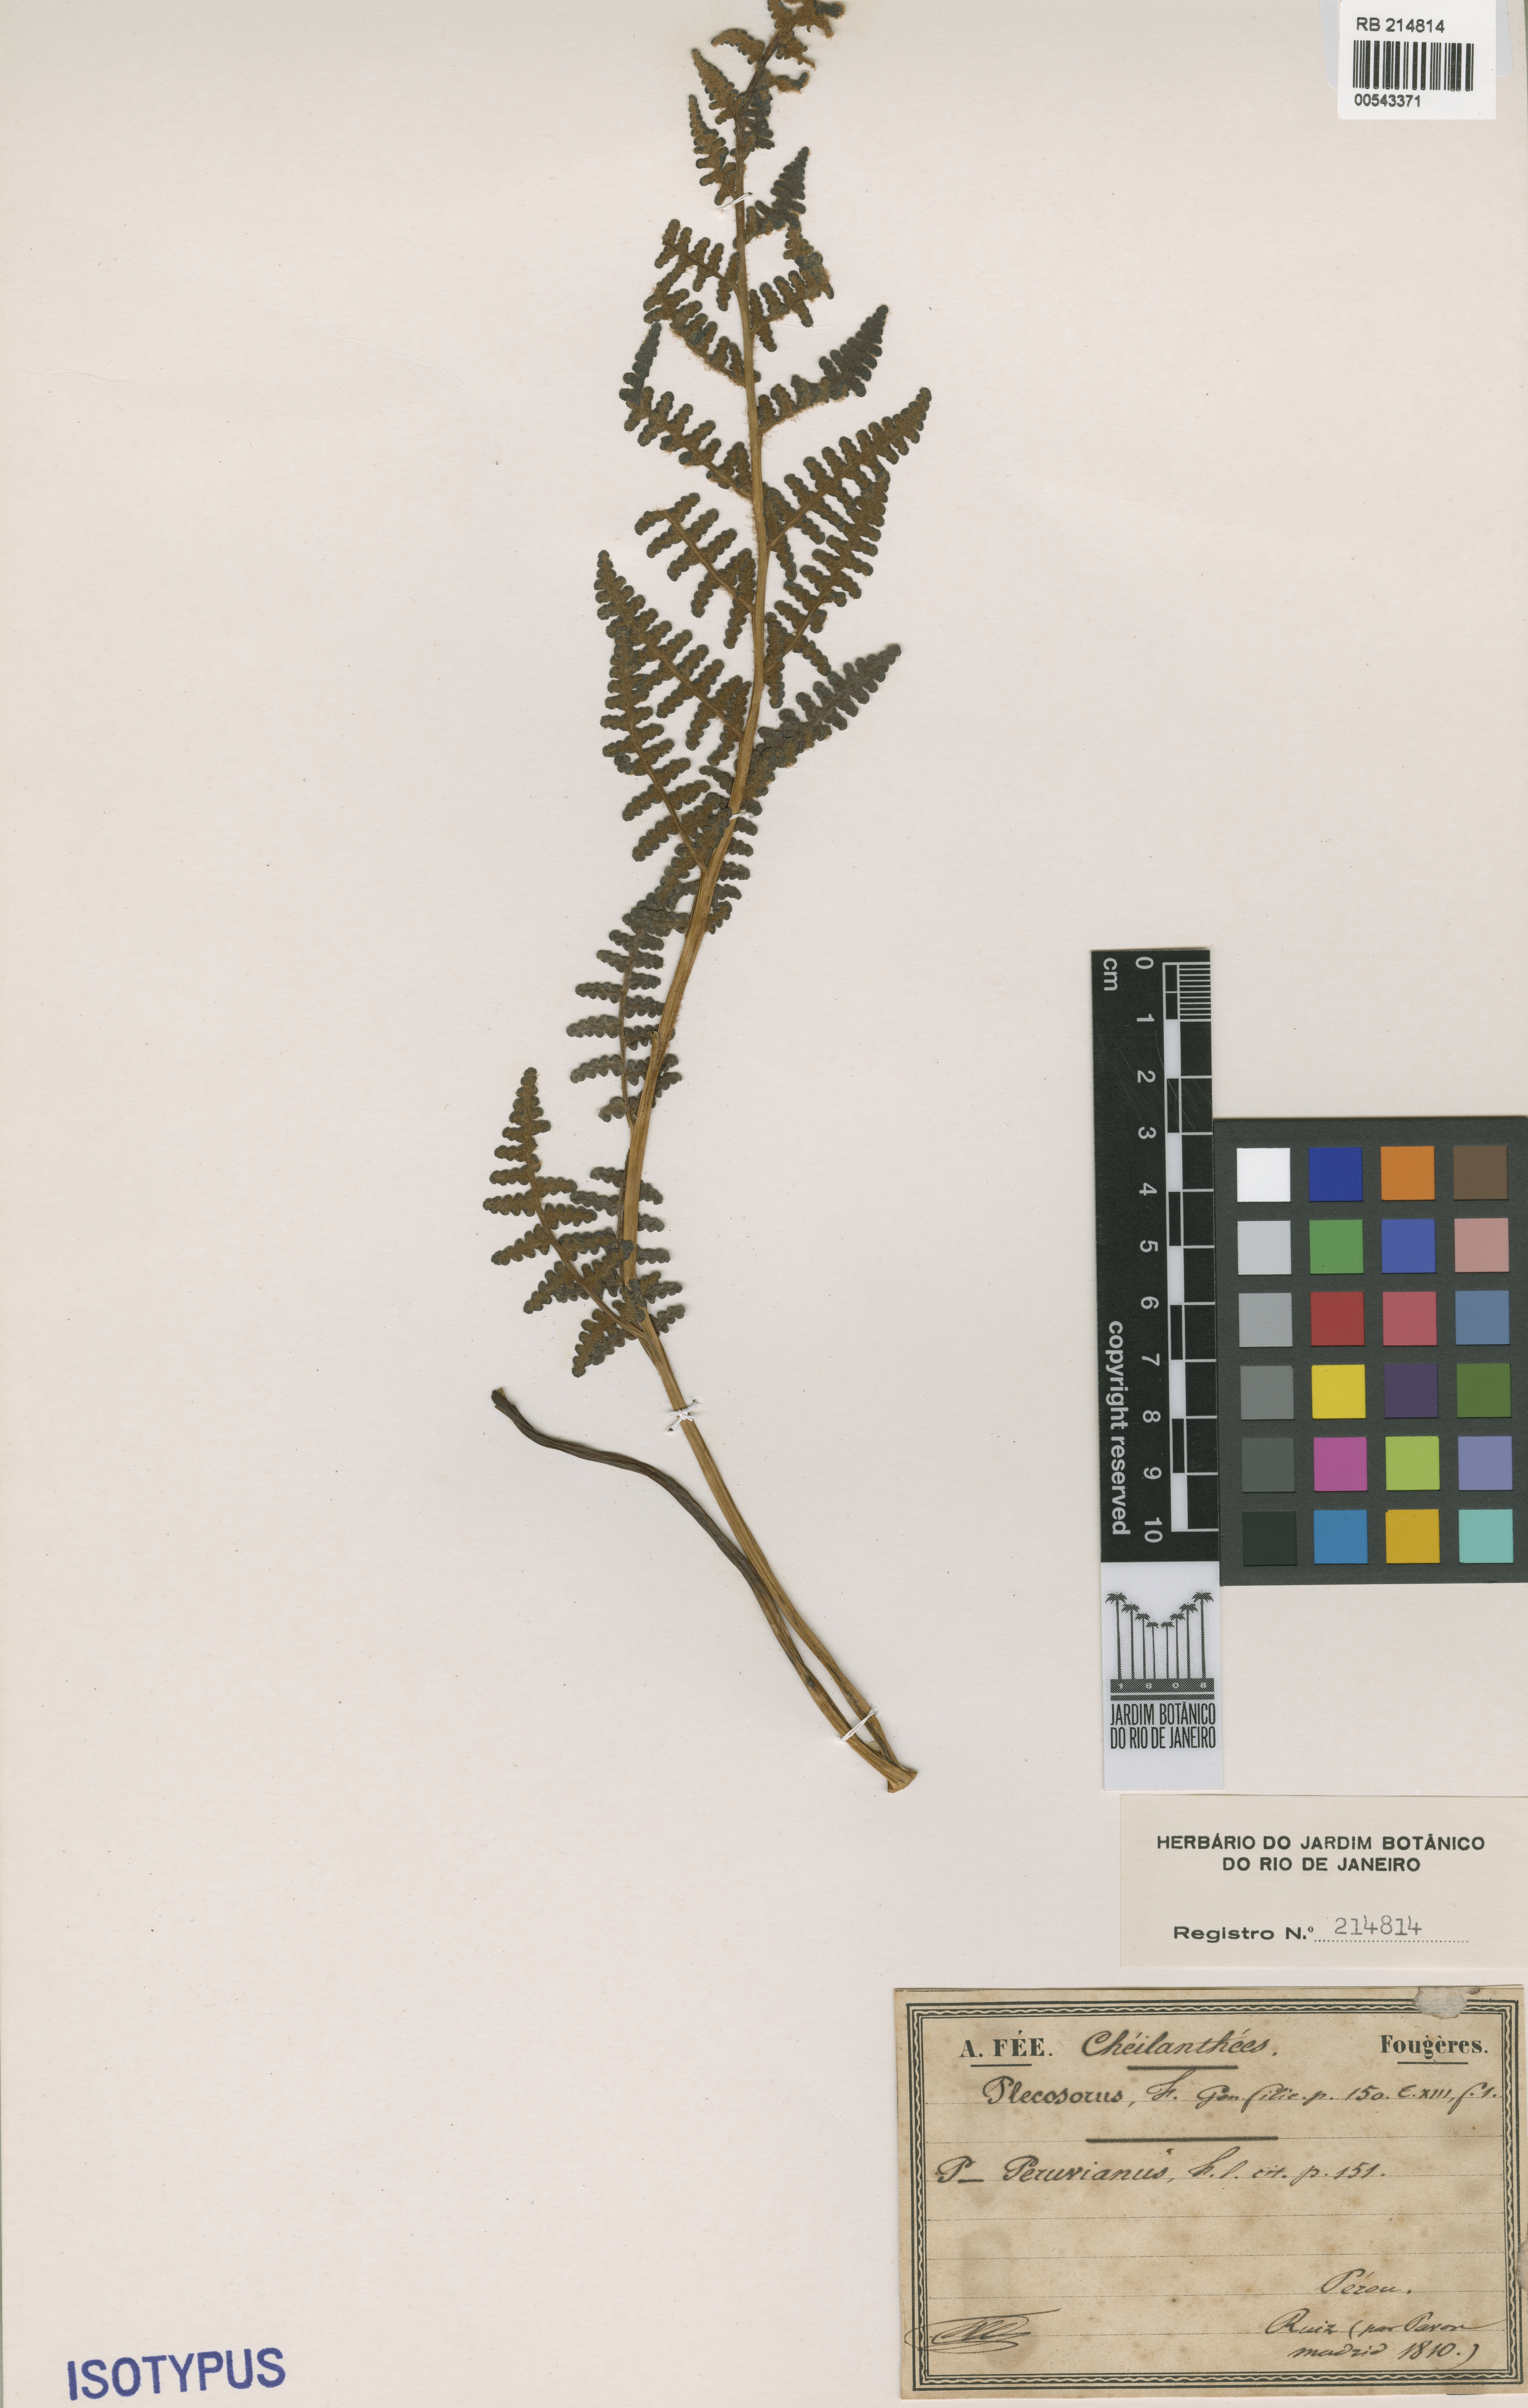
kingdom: Plantae
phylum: Tracheophyta
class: Polypodiopsida
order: Polypodiales
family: Dennstaedtiaceae
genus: Hypolepis
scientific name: Hypolepis obtusata
